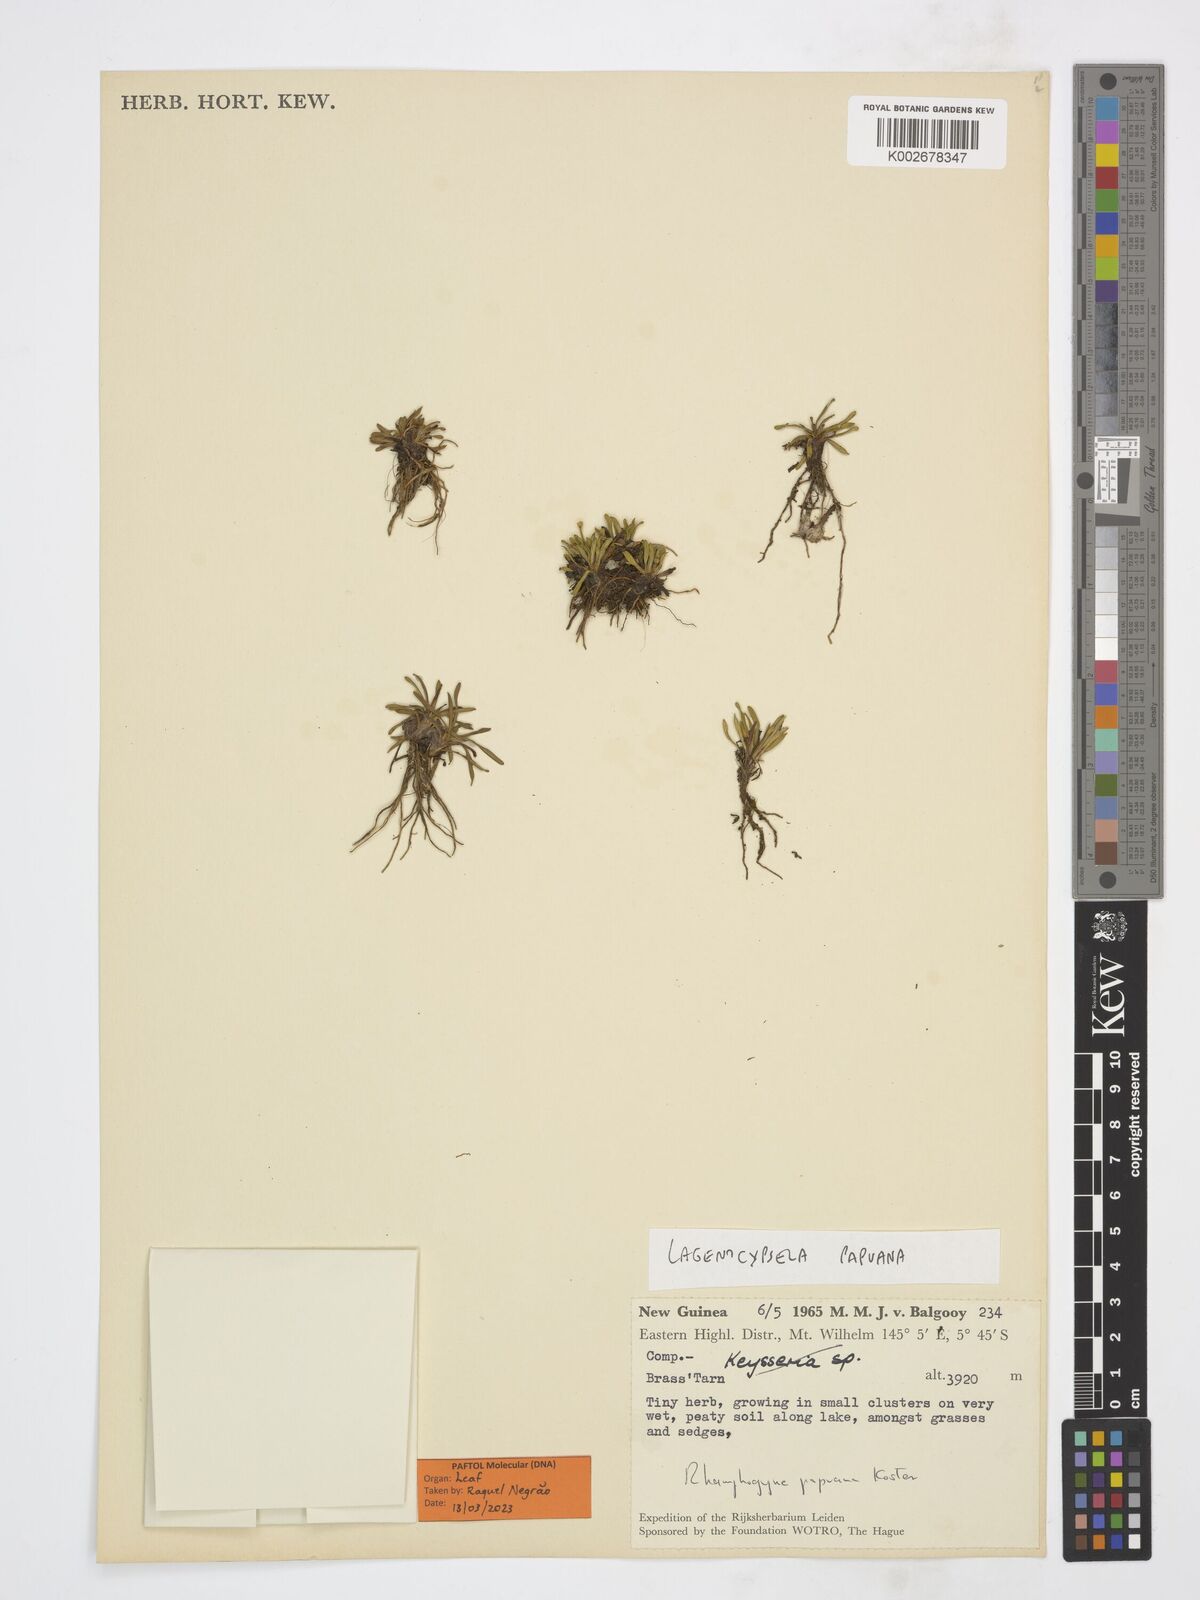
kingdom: Plantae
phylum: Tracheophyta
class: Magnoliopsida
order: Asterales
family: Asteraceae
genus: Lagenocypsela
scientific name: Lagenocypsela papuana
